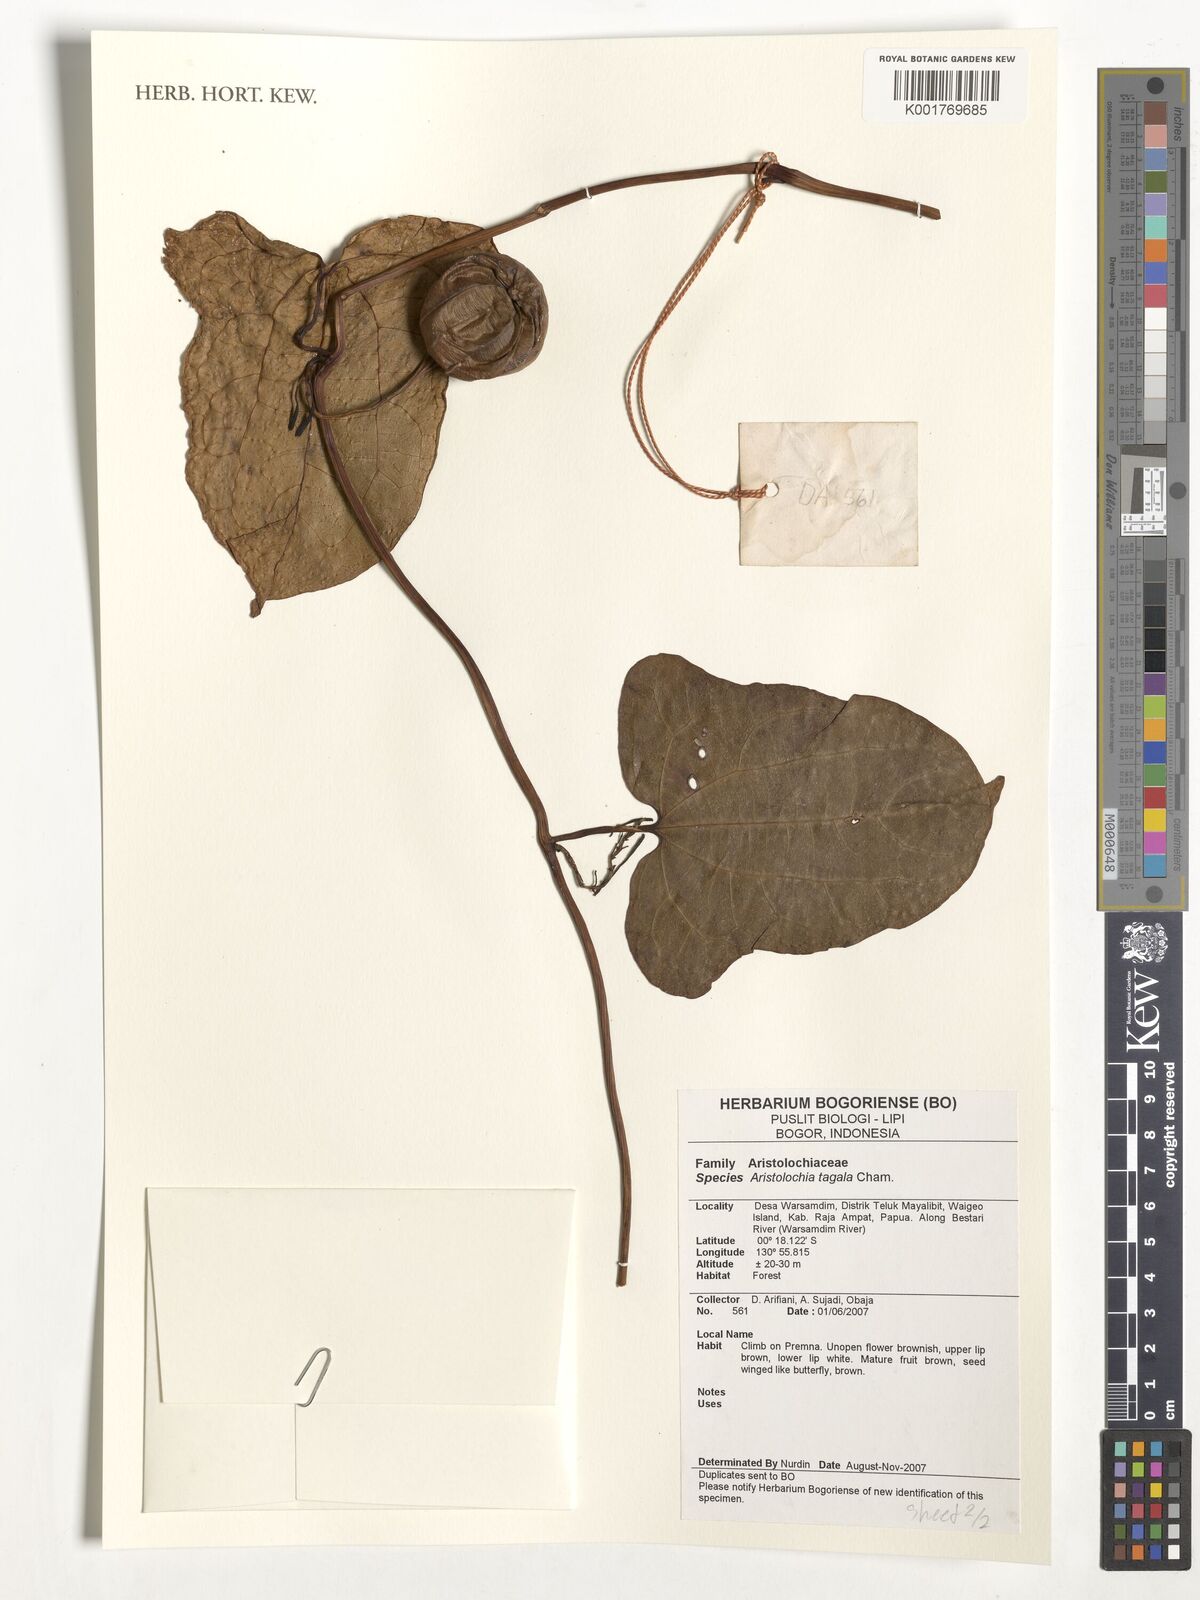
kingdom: Plantae
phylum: Tracheophyta
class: Magnoliopsida
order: Piperales
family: Aristolochiaceae
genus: Aristolochia
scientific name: Aristolochia acuminata
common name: Indian birthwort
